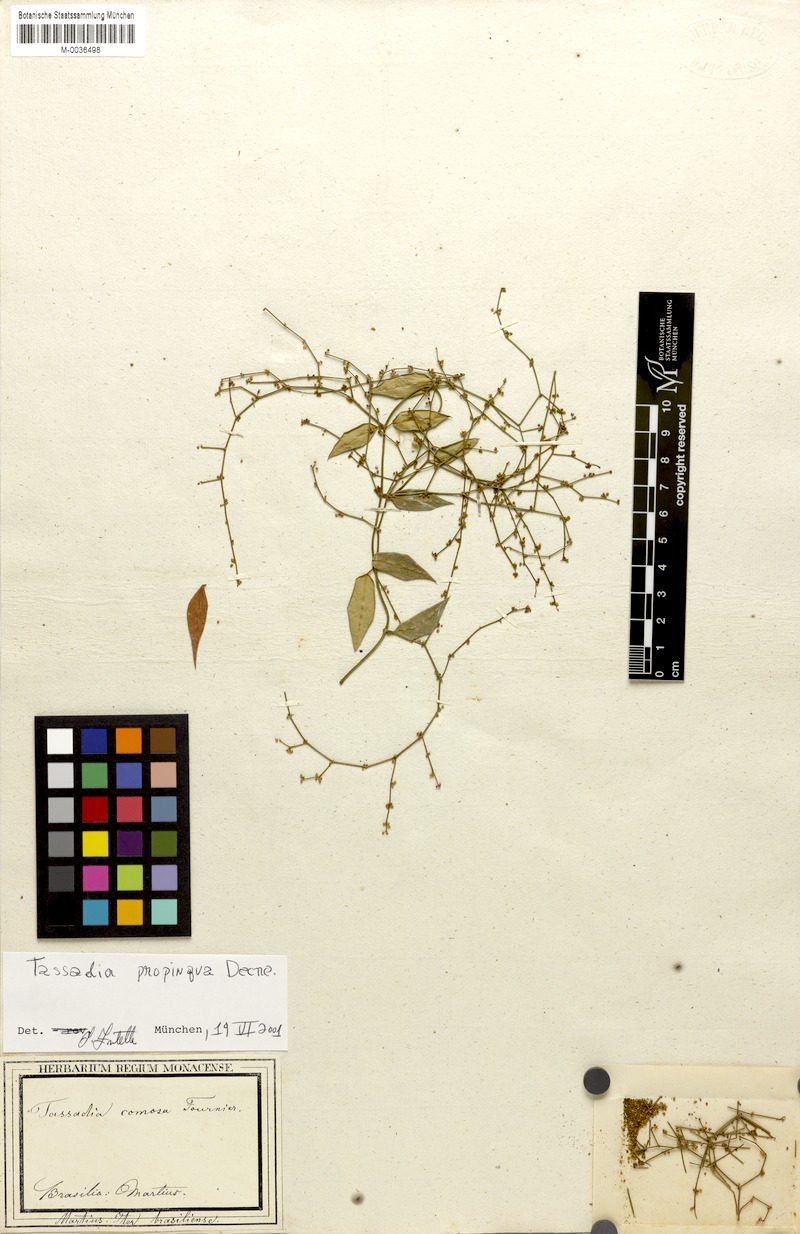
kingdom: Plantae
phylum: Tracheophyta
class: Magnoliopsida
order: Gentianales
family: Apocynaceae
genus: Tassadia
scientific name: Tassadia propinqua
